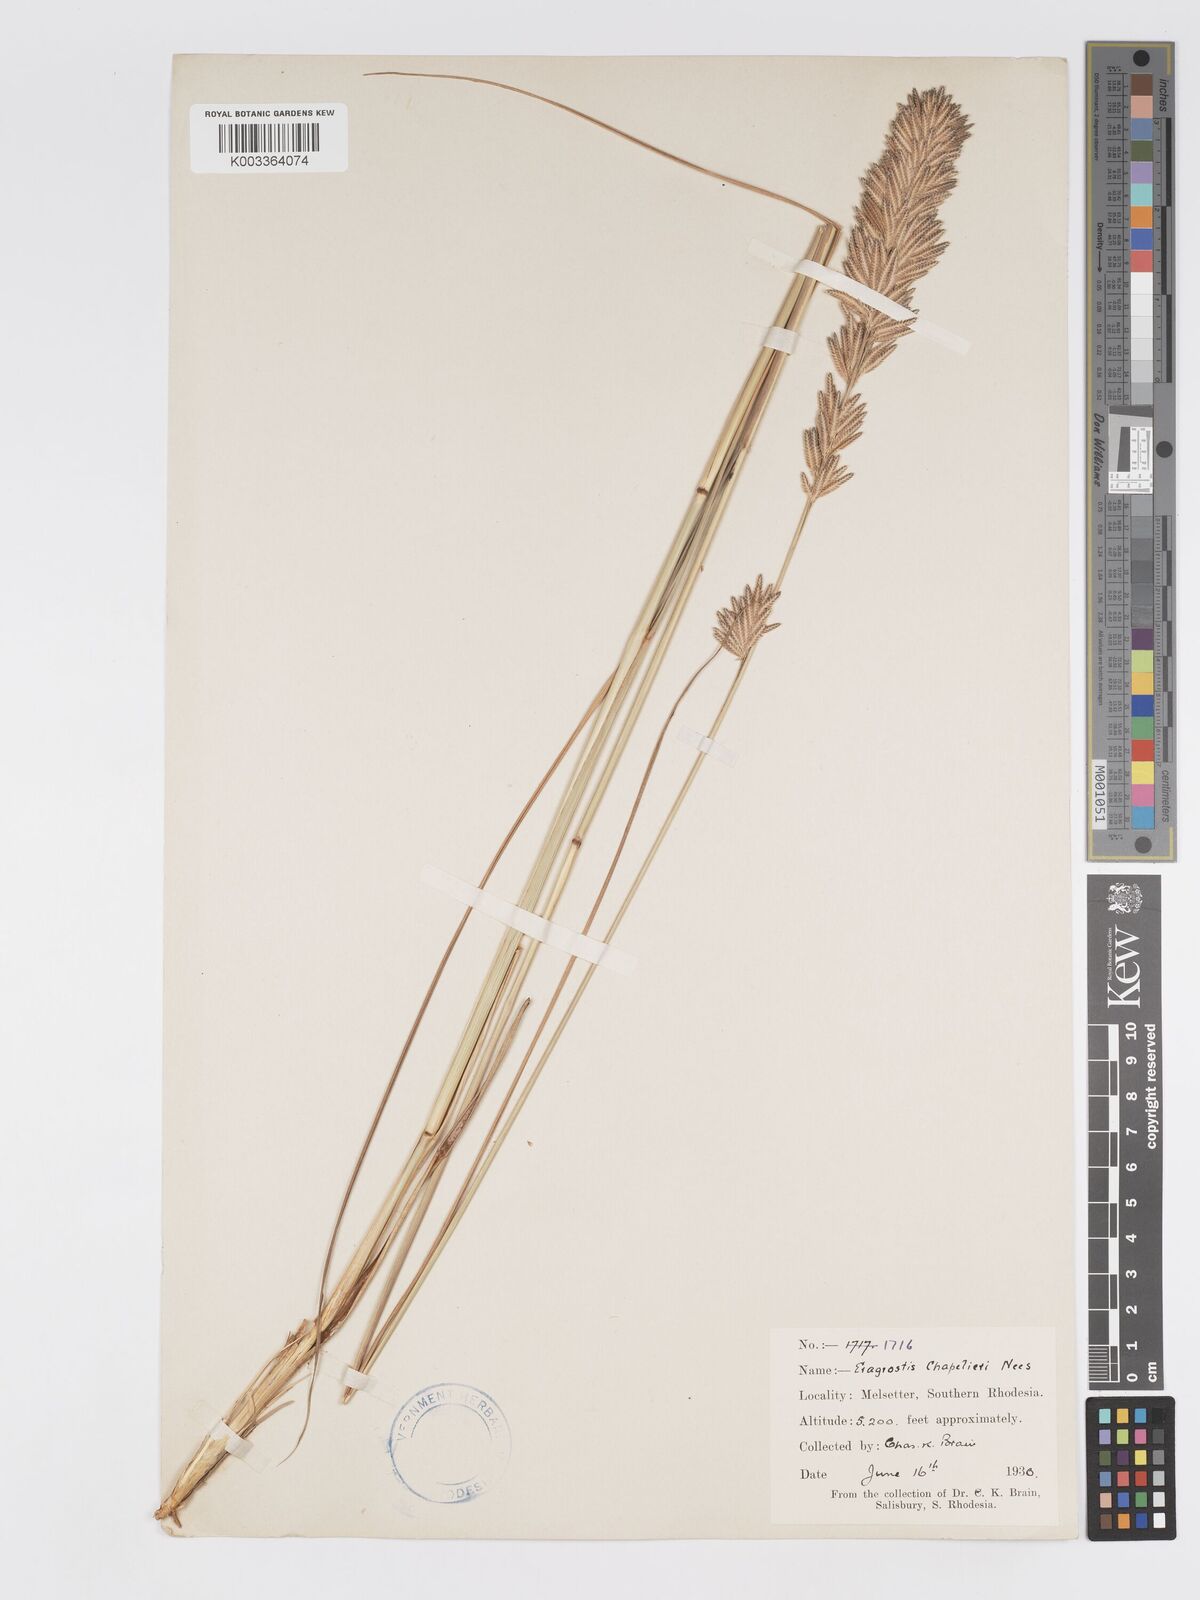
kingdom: Plantae
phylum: Tracheophyta
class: Liliopsida
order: Poales
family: Poaceae
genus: Eragrostis
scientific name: Eragrostis chapelieri
